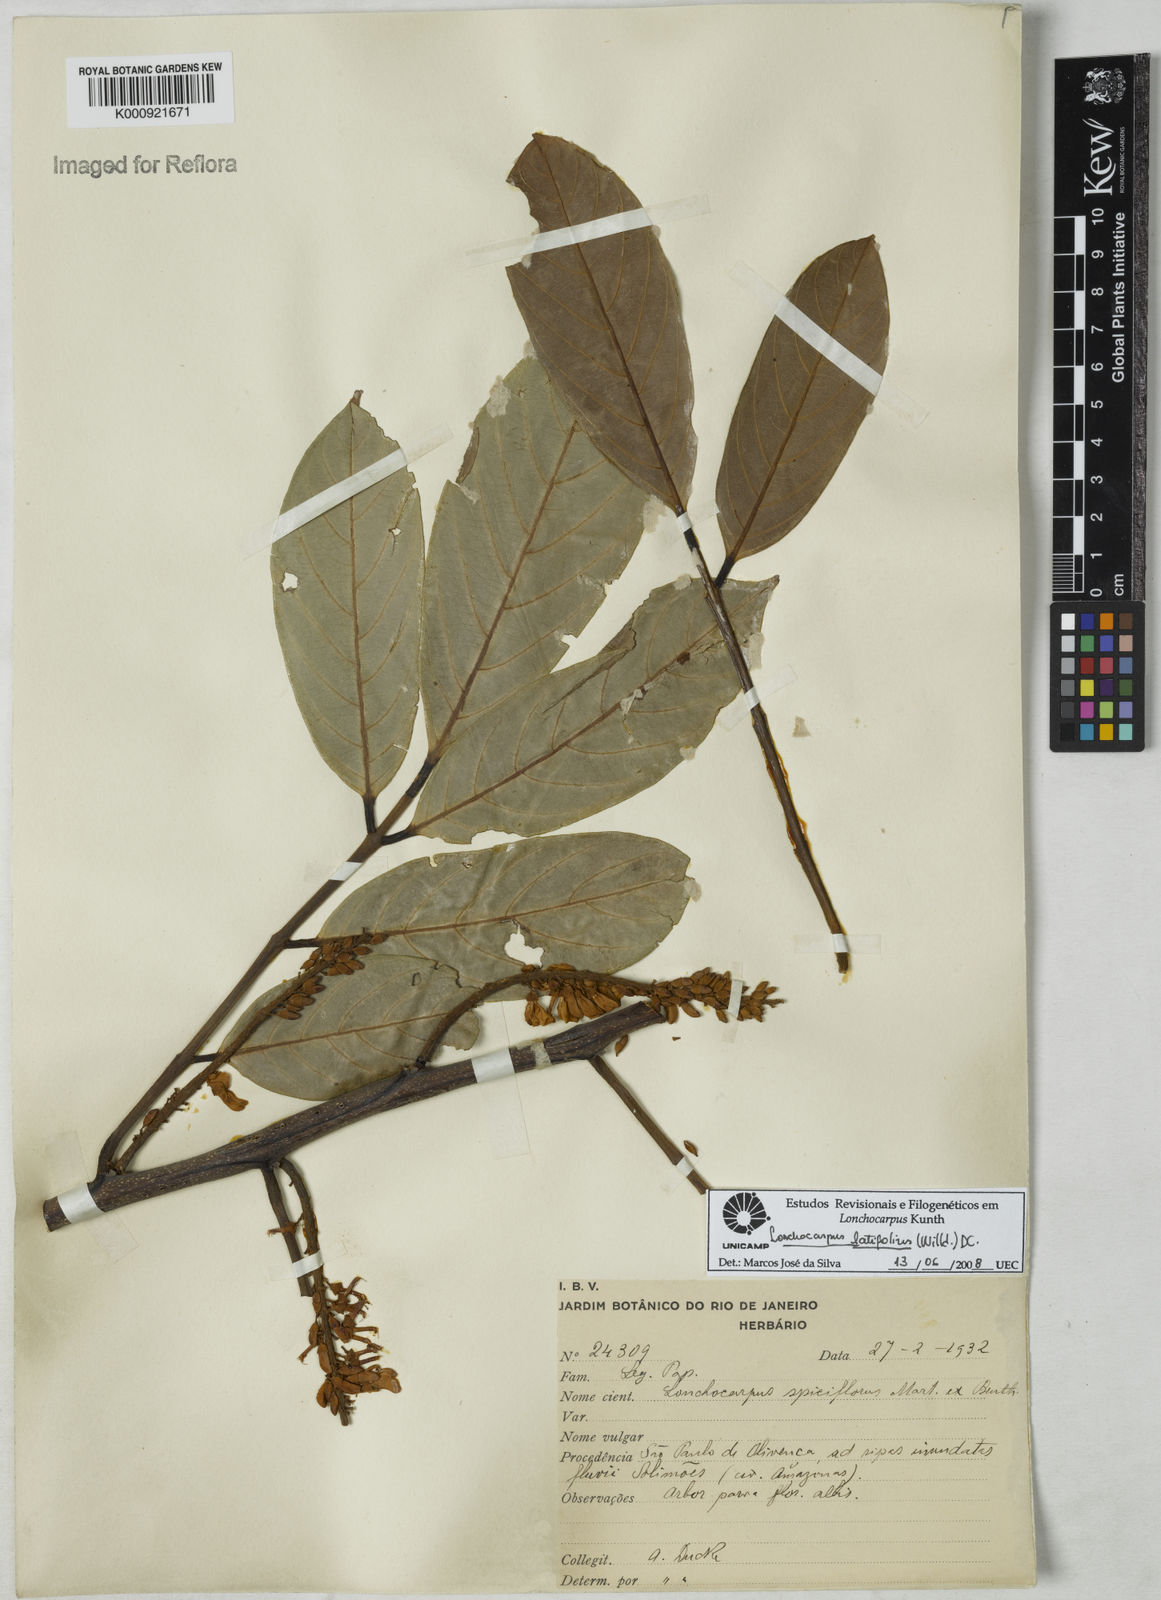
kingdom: Plantae
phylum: Tracheophyta
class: Magnoliopsida
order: Fabales
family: Fabaceae
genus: Lonchocarpus
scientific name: Lonchocarpus heptaphyllus
